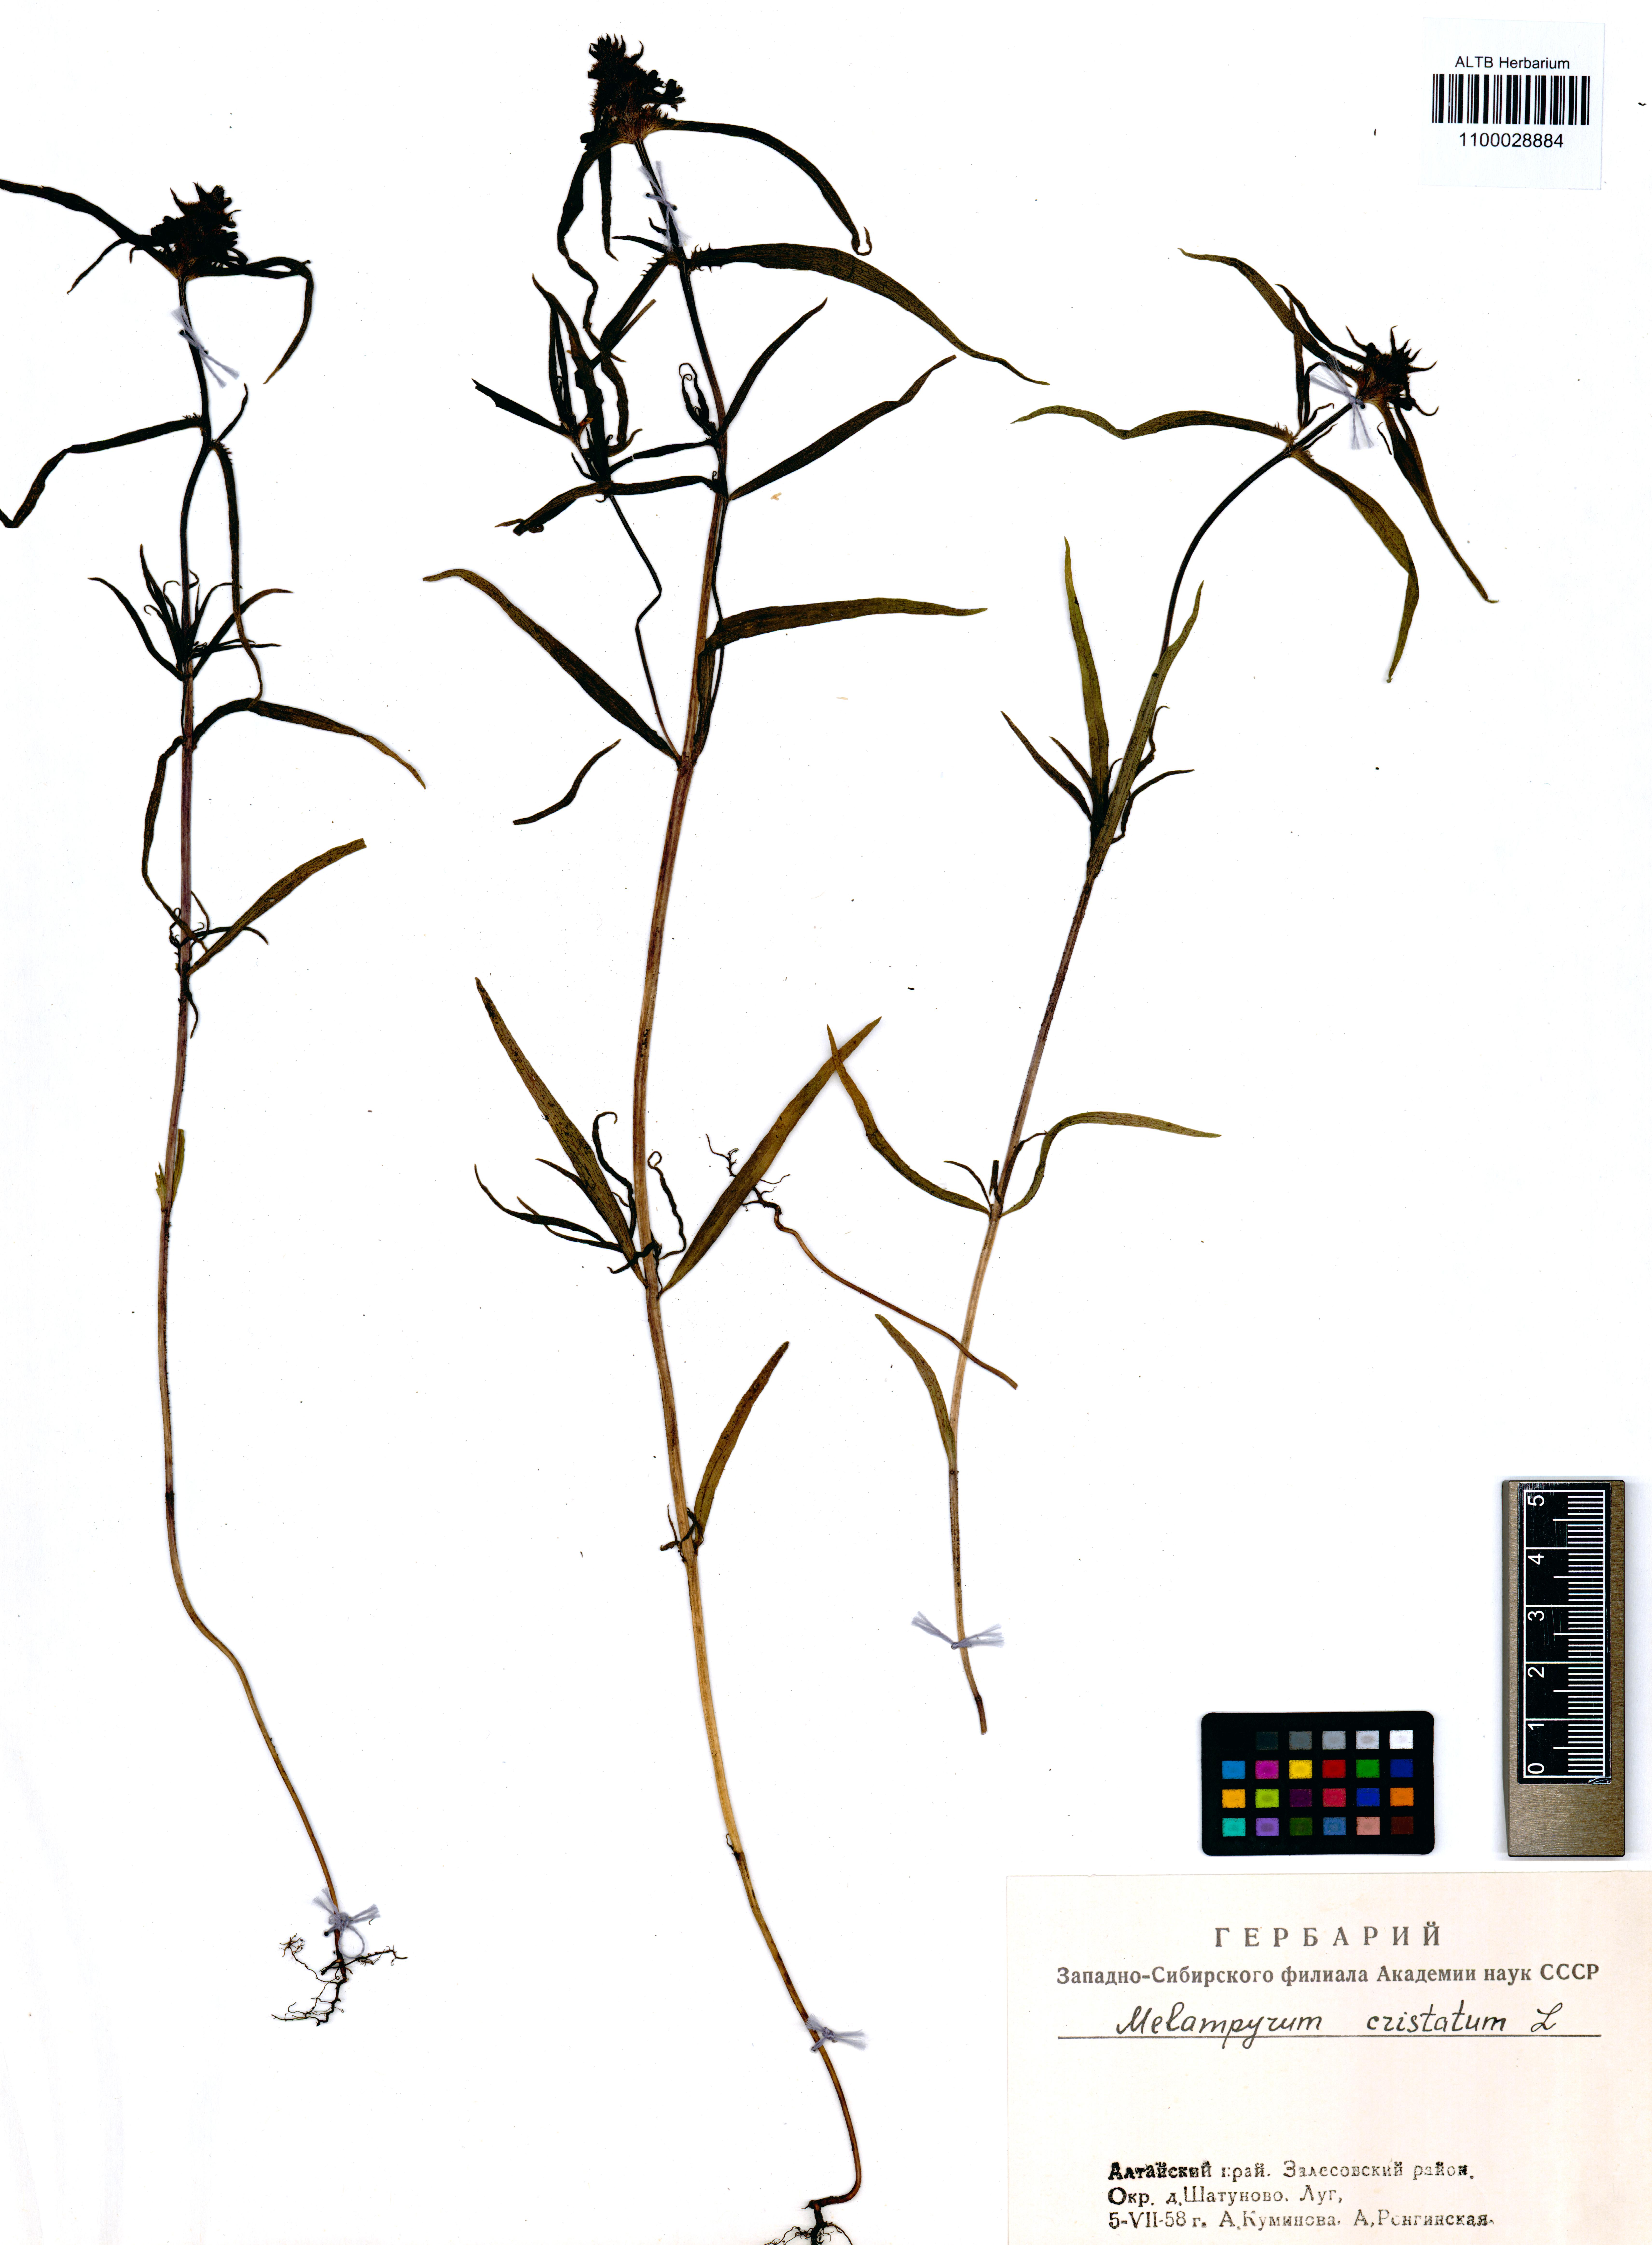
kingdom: Plantae
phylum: Tracheophyta
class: Magnoliopsida
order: Lamiales
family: Orobanchaceae
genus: Melampyrum
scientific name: Melampyrum cristatum
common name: Crested cow-wheat
